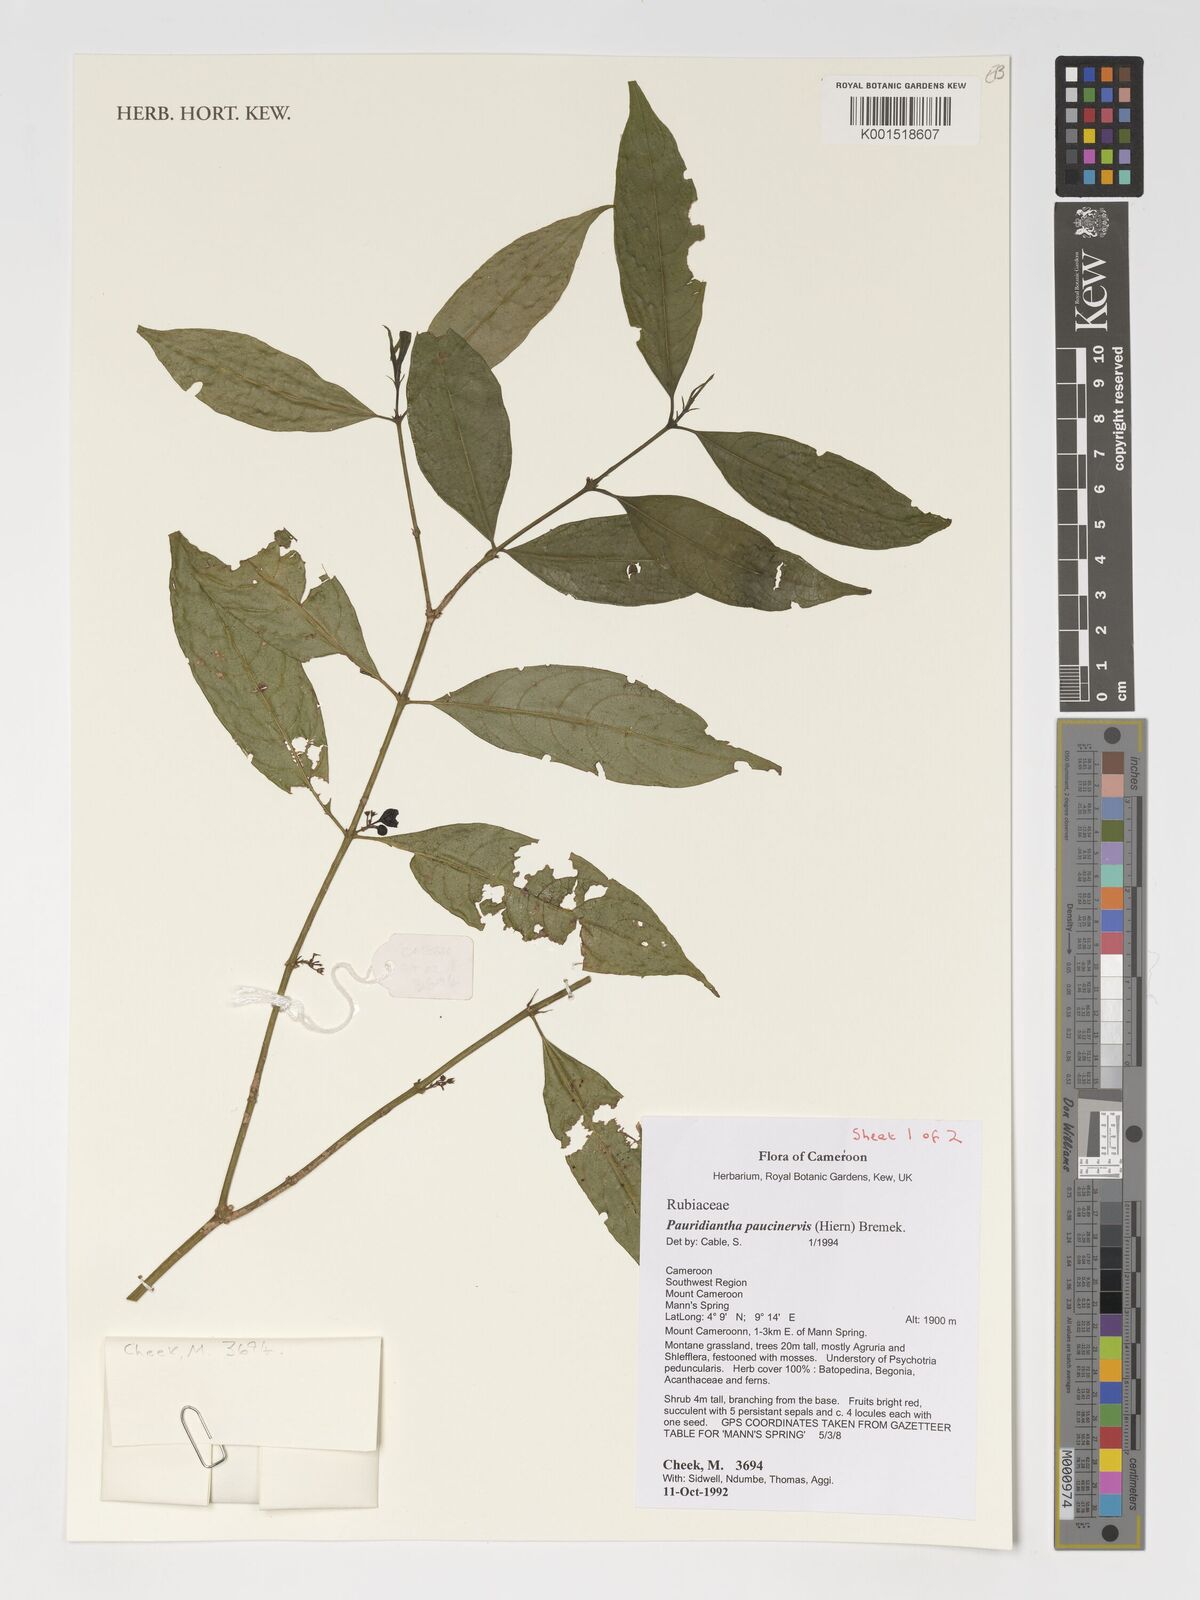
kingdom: Plantae
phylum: Tracheophyta
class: Magnoliopsida
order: Gentianales
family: Rubiaceae
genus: Pauridiantha
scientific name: Pauridiantha paucinervis
